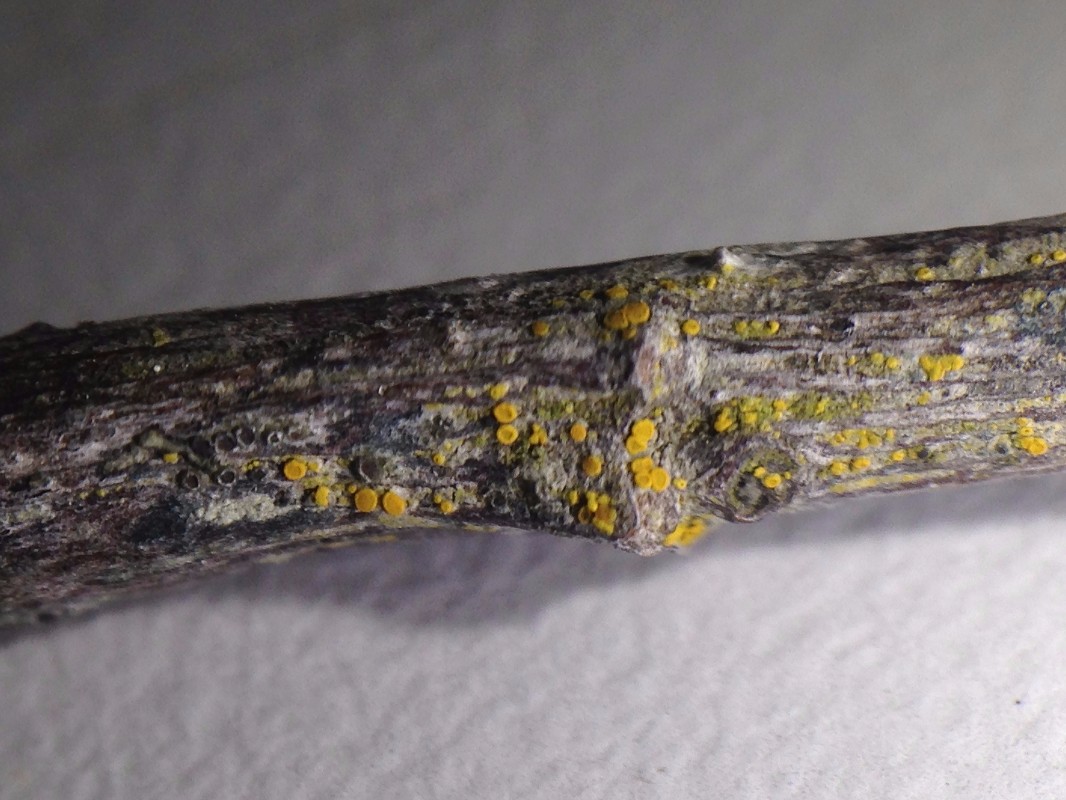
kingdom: Fungi
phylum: Ascomycota
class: Lecanoromycetes
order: Teloschistales
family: Teloschistaceae
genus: Athallia
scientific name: Athallia cerinelloides
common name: citrongul orangelav
